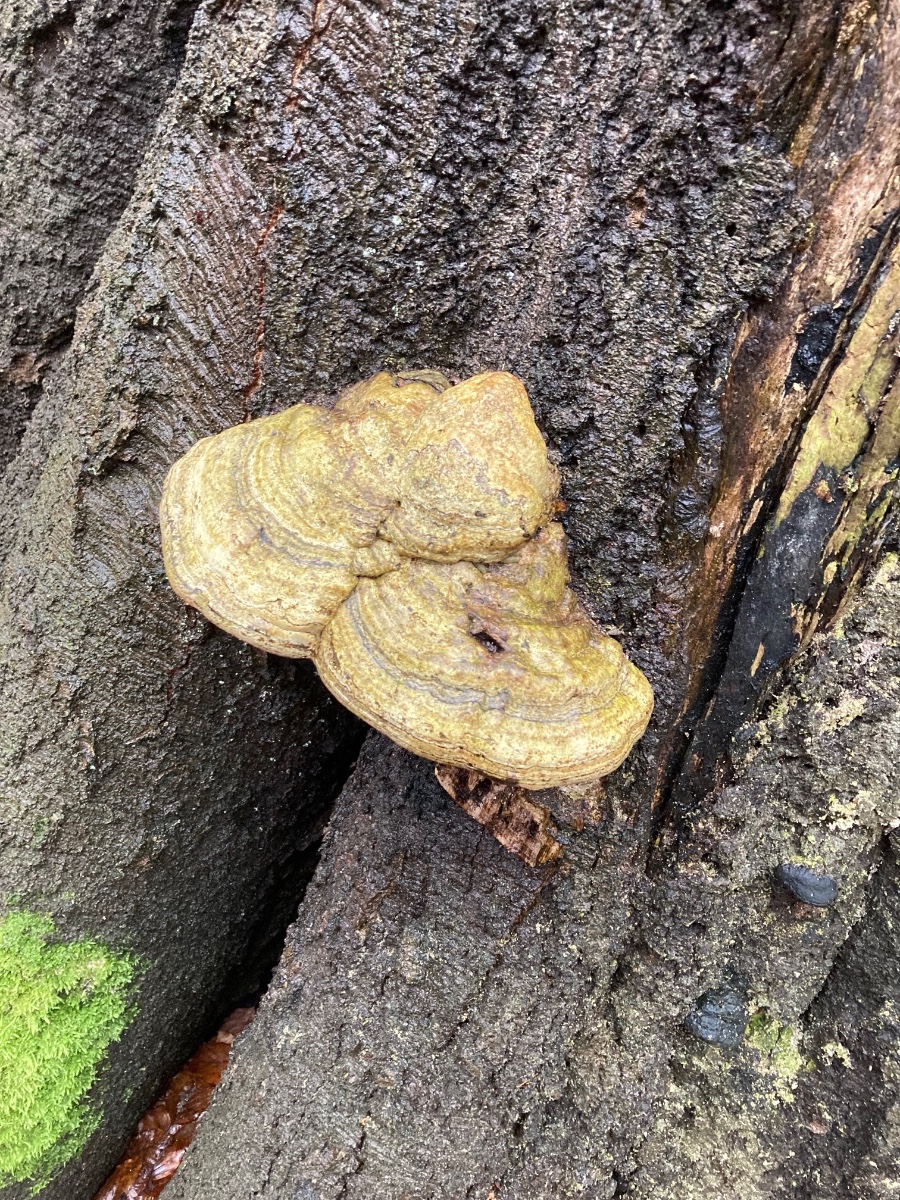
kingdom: Fungi
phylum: Basidiomycota
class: Agaricomycetes
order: Polyporales
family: Polyporaceae
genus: Fomes
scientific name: Fomes fomentarius
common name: tøndersvamp
